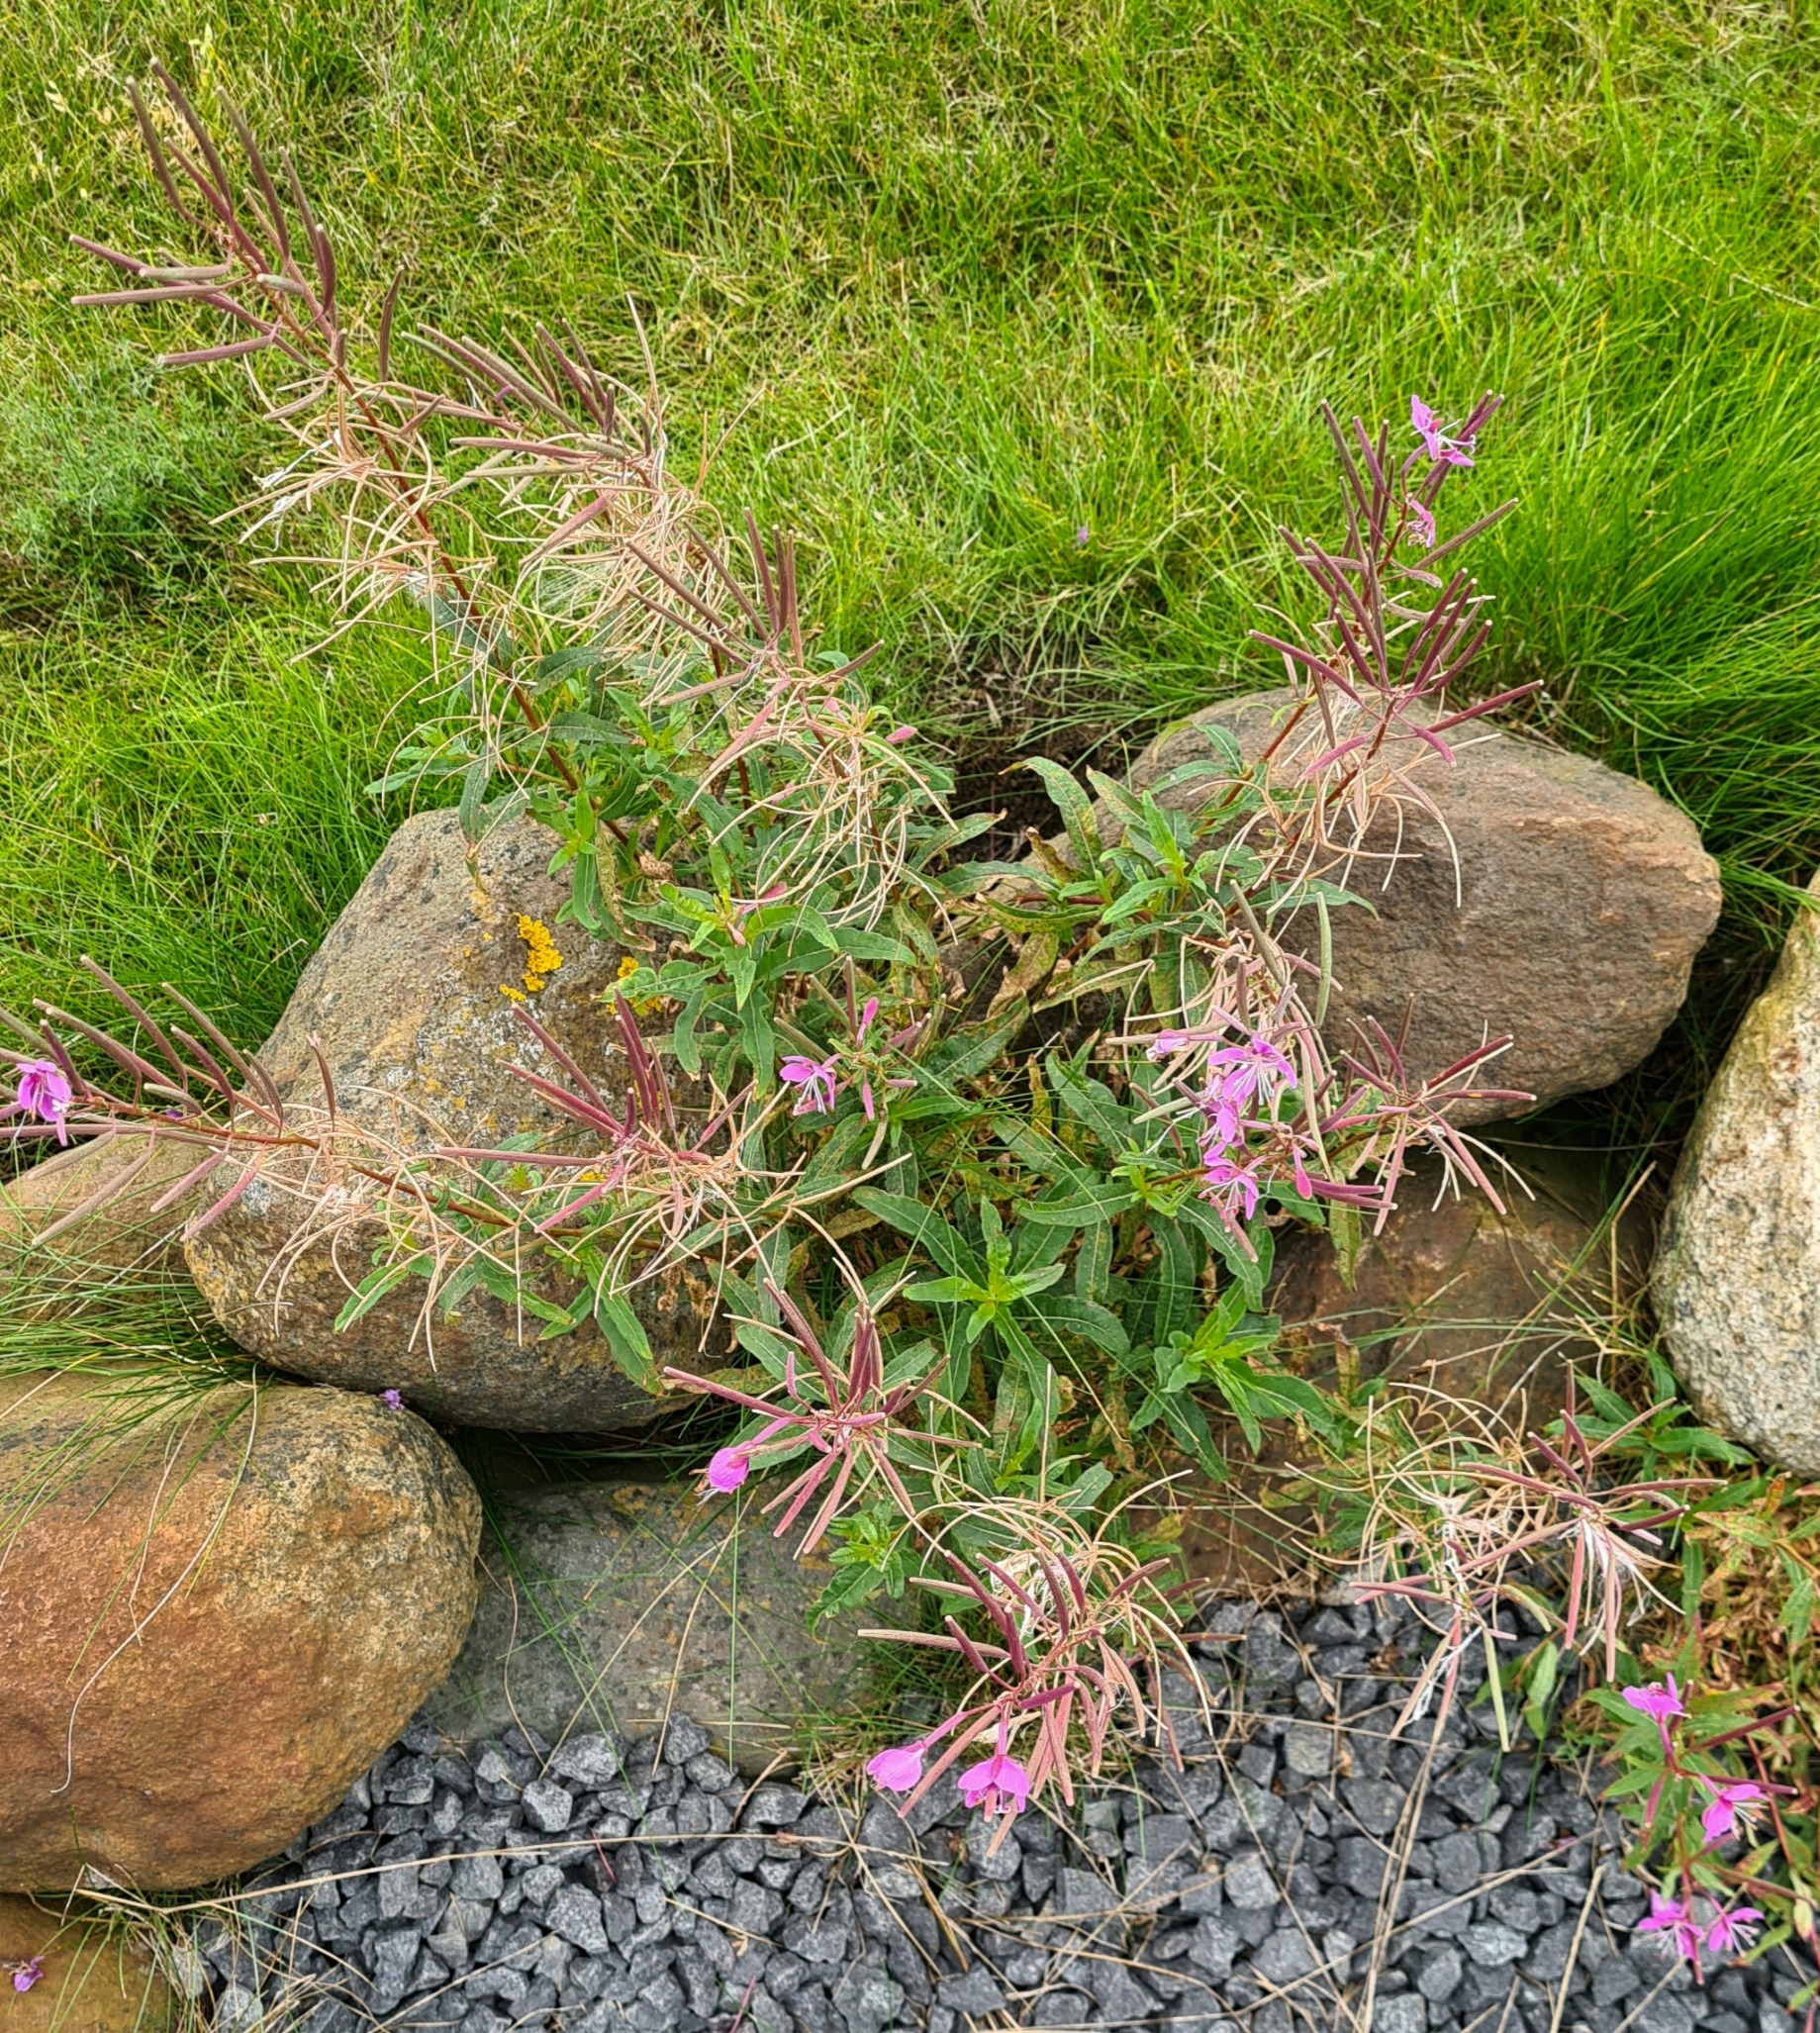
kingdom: Plantae
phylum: Tracheophyta
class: Magnoliopsida
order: Myrtales
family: Onagraceae
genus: Chamaenerion
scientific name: Chamaenerion angustifolium
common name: Gederams
